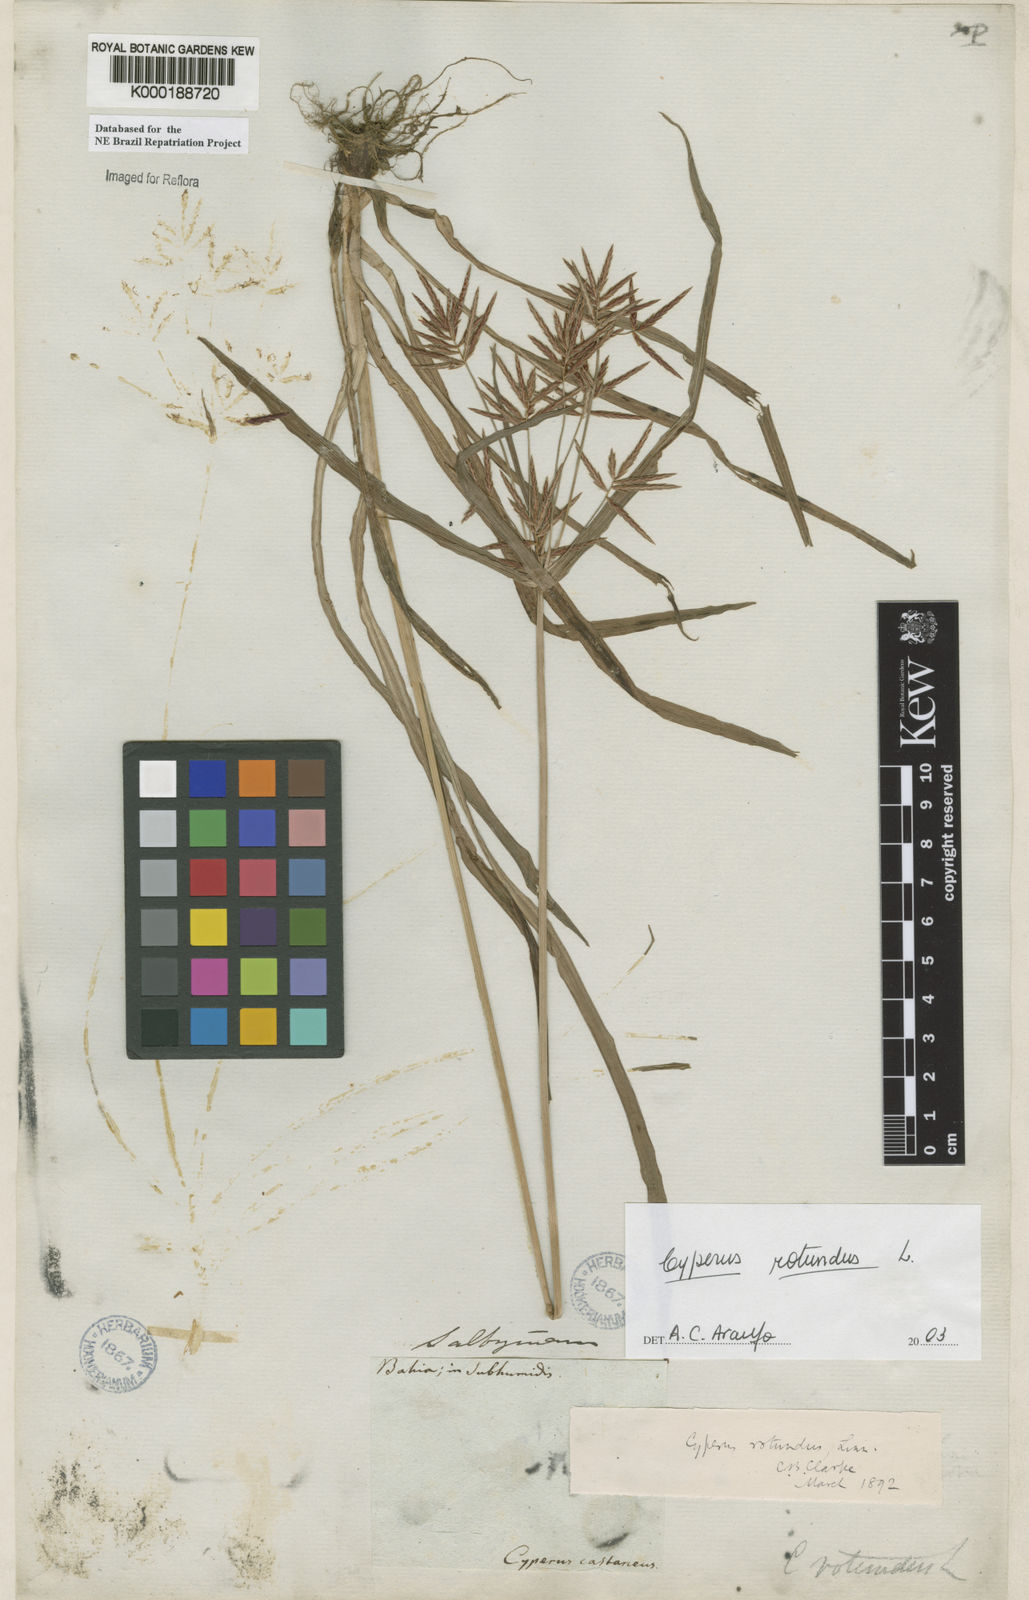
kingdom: Plantae
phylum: Tracheophyta
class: Liliopsida
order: Poales
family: Cyperaceae
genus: Cyperus
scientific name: Cyperus rotundus
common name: Nutgrass
